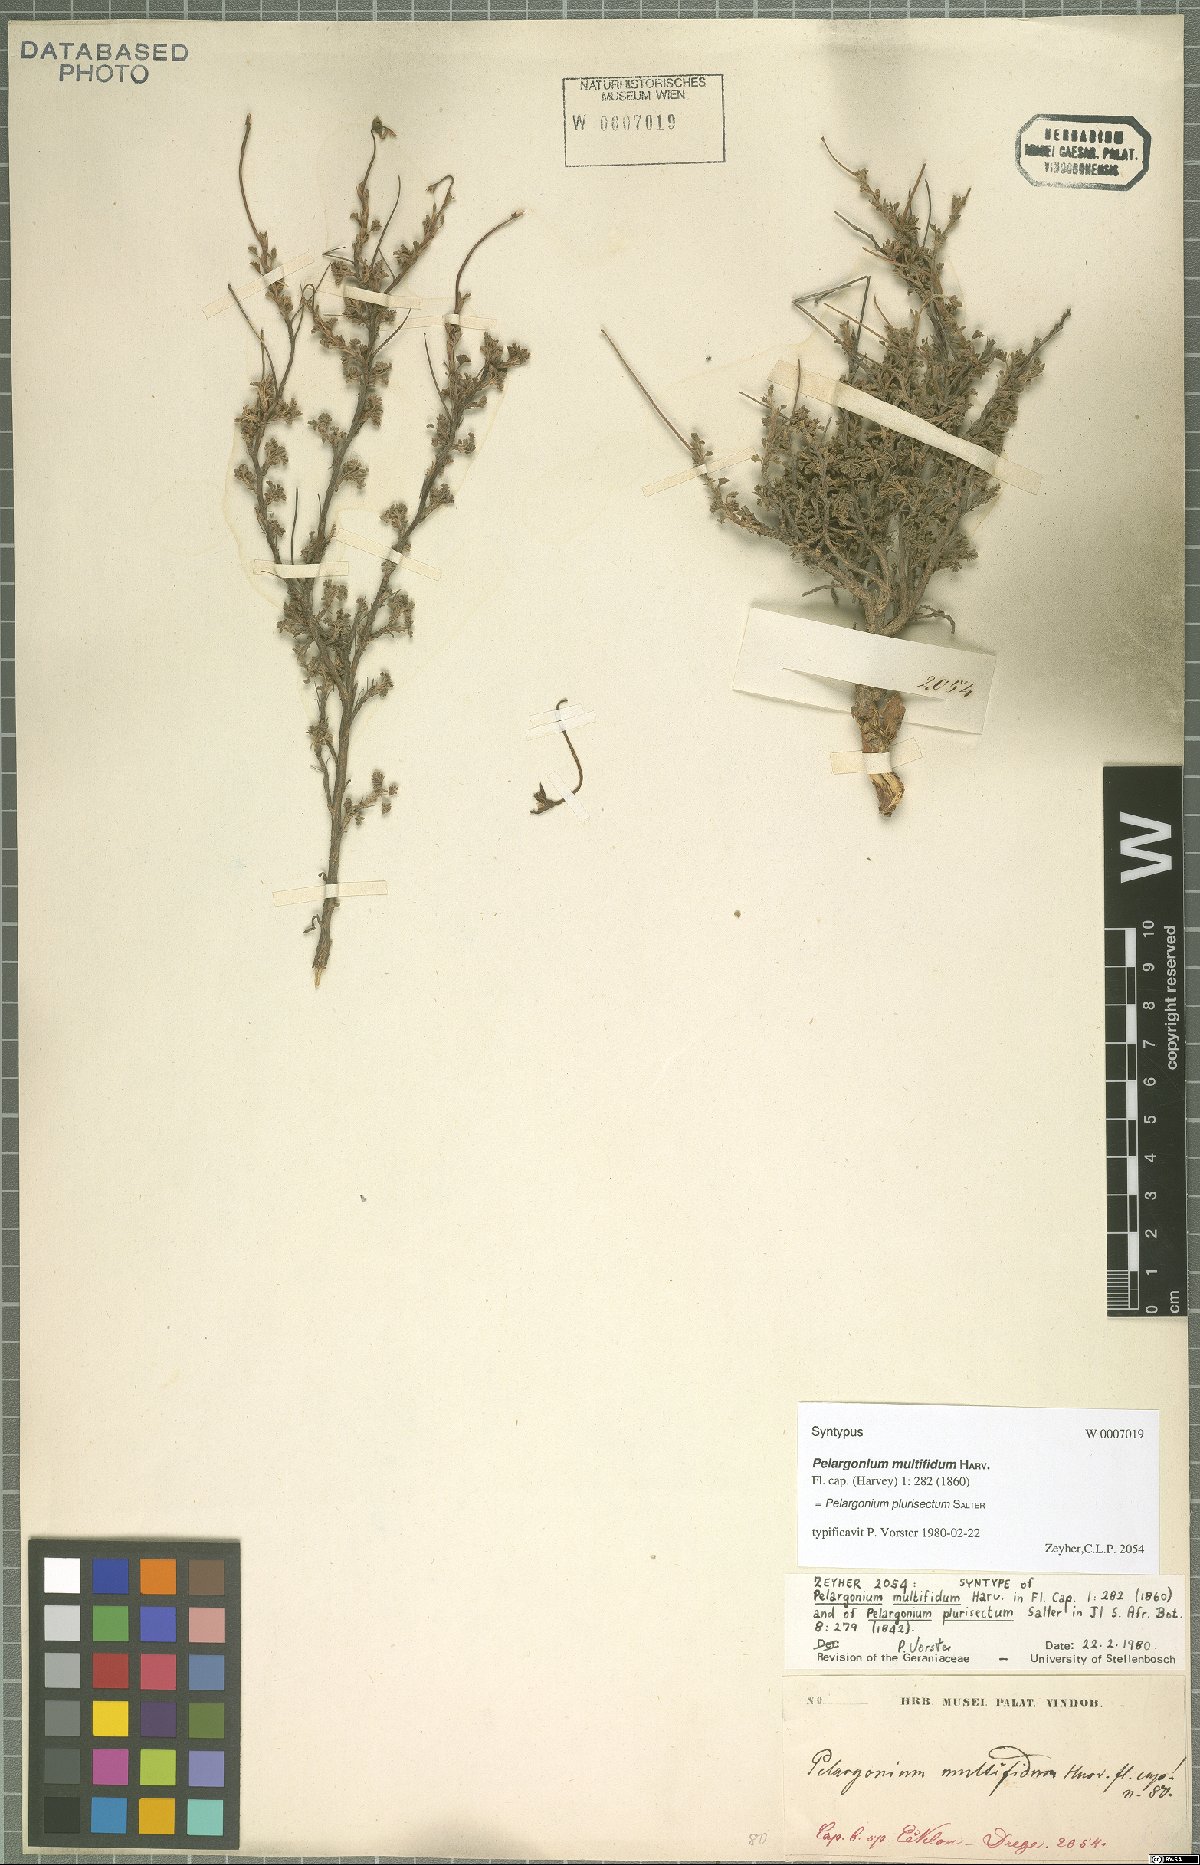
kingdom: Plantae
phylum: Tracheophyta
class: Magnoliopsida
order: Geraniales
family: Geraniaceae
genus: Pelargonium
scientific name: Pelargonium plurisectum
